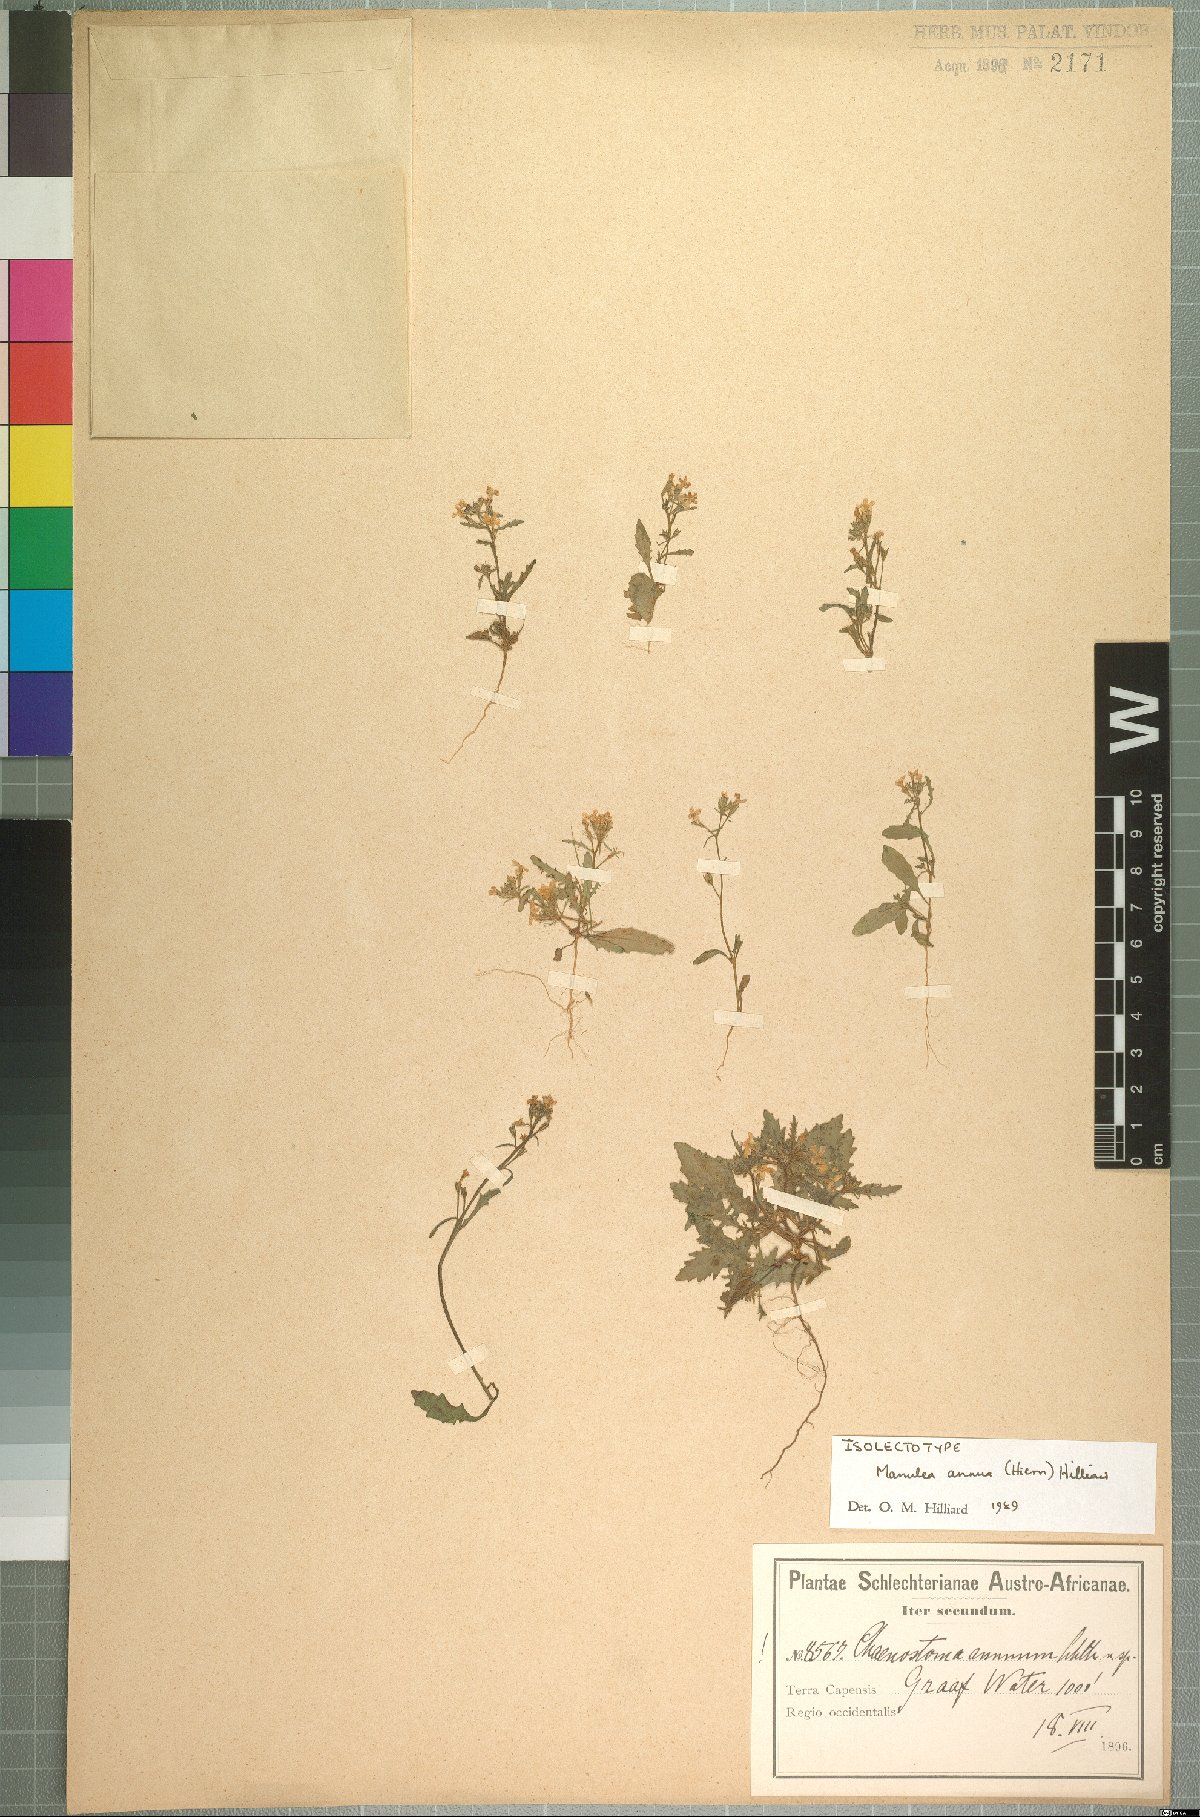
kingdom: Plantae
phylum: Tracheophyta
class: Magnoliopsida
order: Lamiales
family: Scrophulariaceae
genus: Manulea
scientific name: Manulea annua
